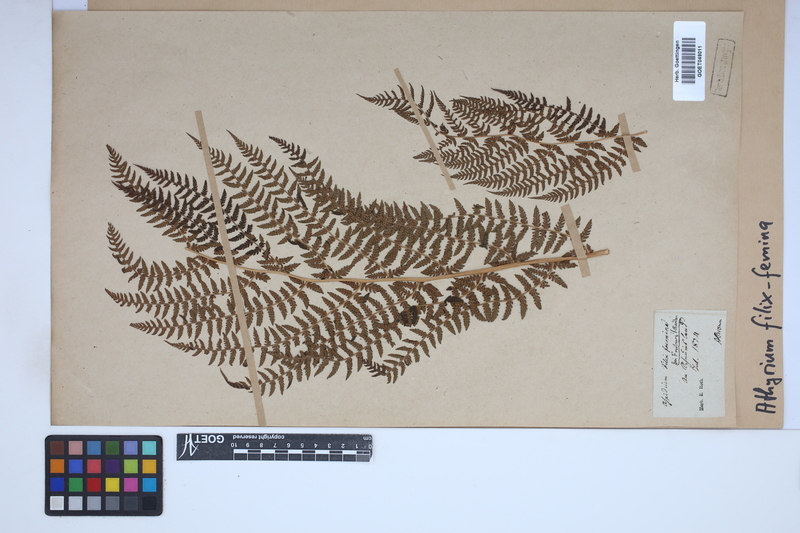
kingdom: Plantae
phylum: Tracheophyta
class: Polypodiopsida
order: Polypodiales
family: Athyriaceae
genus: Athyrium
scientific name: Athyrium filix-femina
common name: Lady fern
